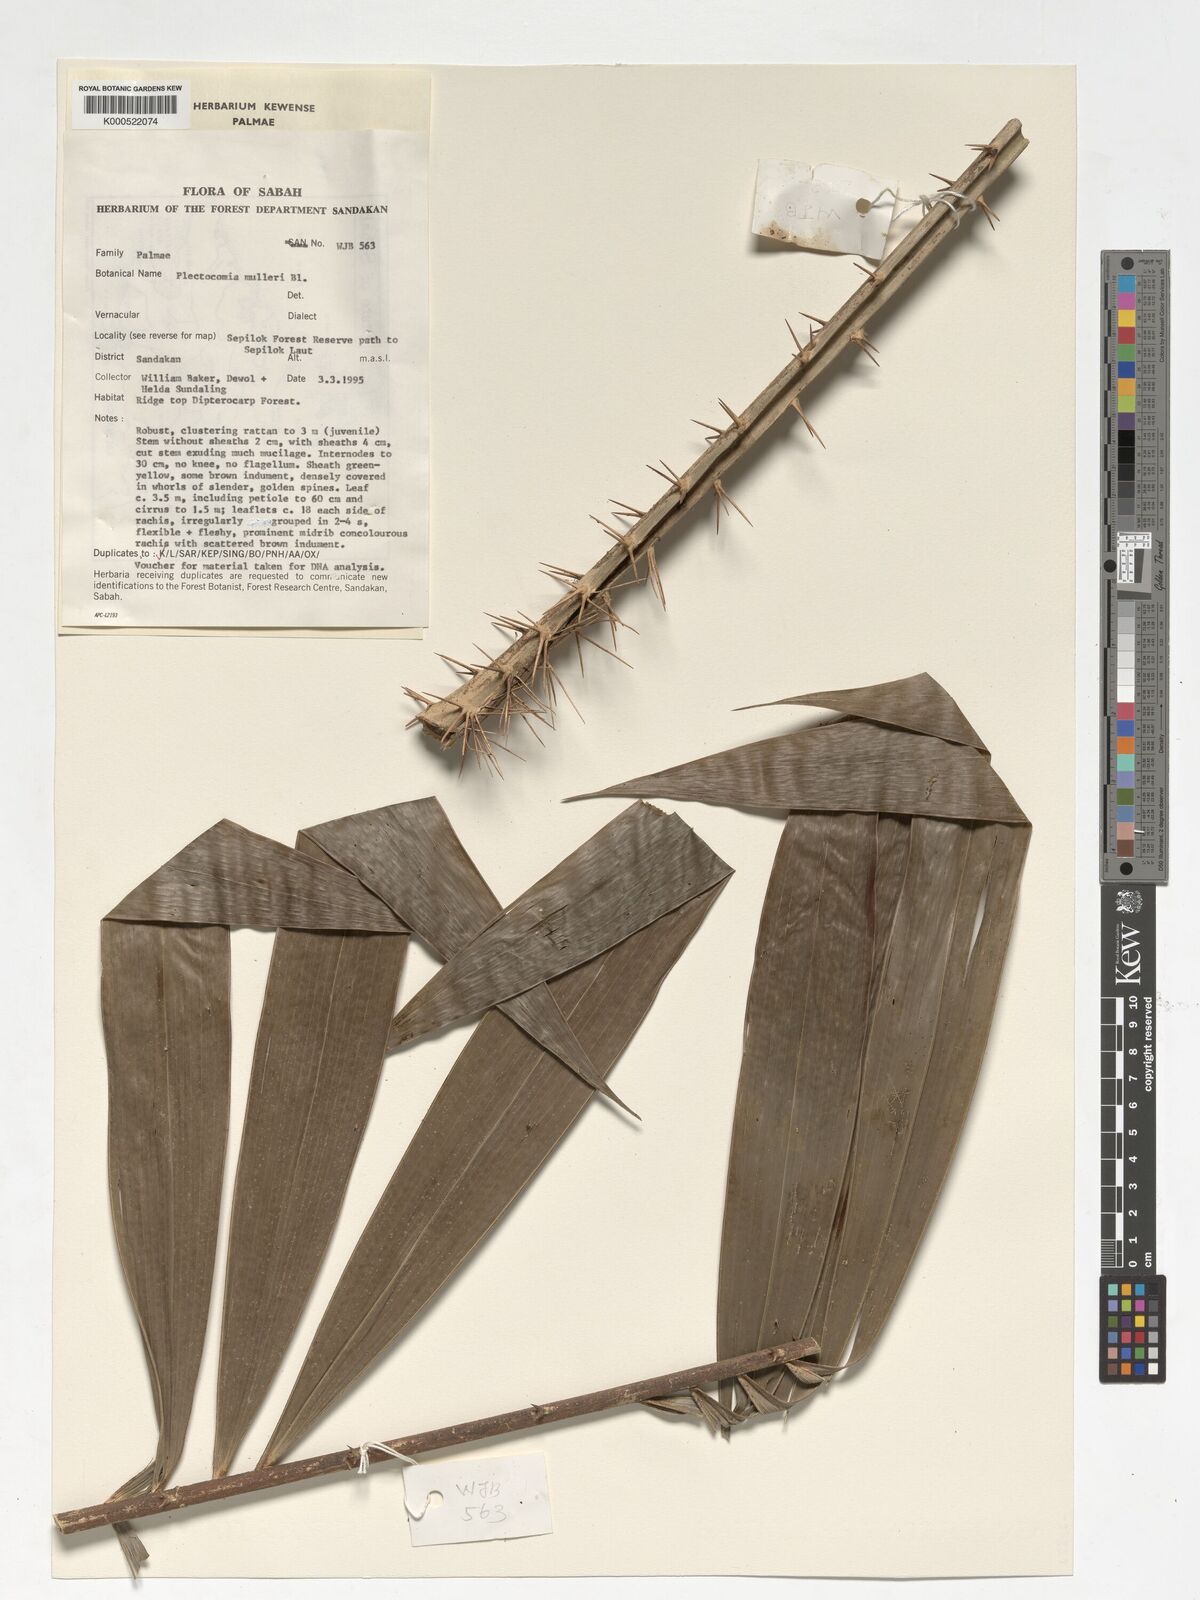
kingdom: Plantae
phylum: Tracheophyta
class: Liliopsida
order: Arecales
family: Arecaceae
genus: Plectocomia
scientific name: Plectocomia mulleri
